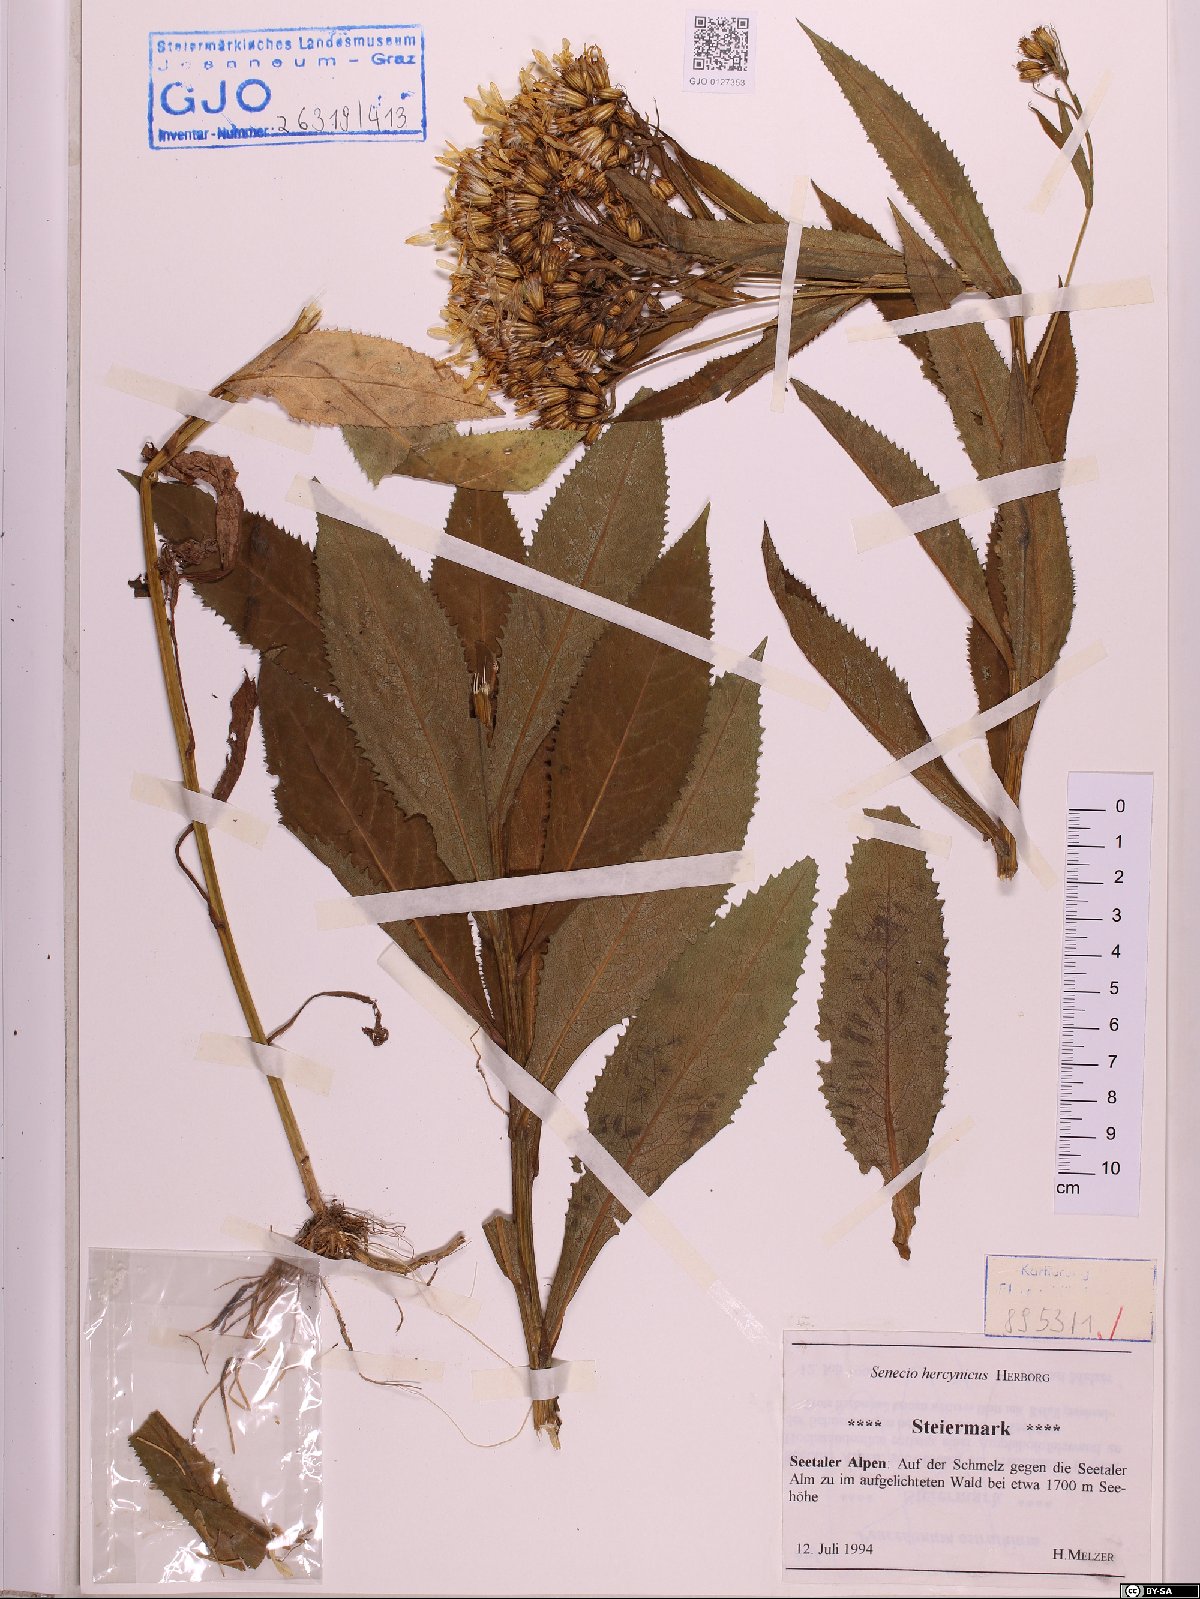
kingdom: Plantae
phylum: Tracheophyta
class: Magnoliopsida
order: Asterales
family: Asteraceae
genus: Senecio
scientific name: Senecio hercynicus
